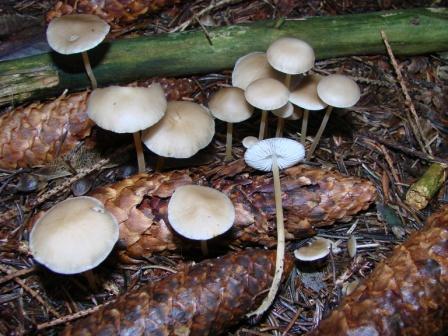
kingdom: Fungi
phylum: Basidiomycota
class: Agaricomycetes
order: Agaricales
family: Physalacriaceae
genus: Strobilurus
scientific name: Strobilurus esculentus
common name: gran-koglehat
